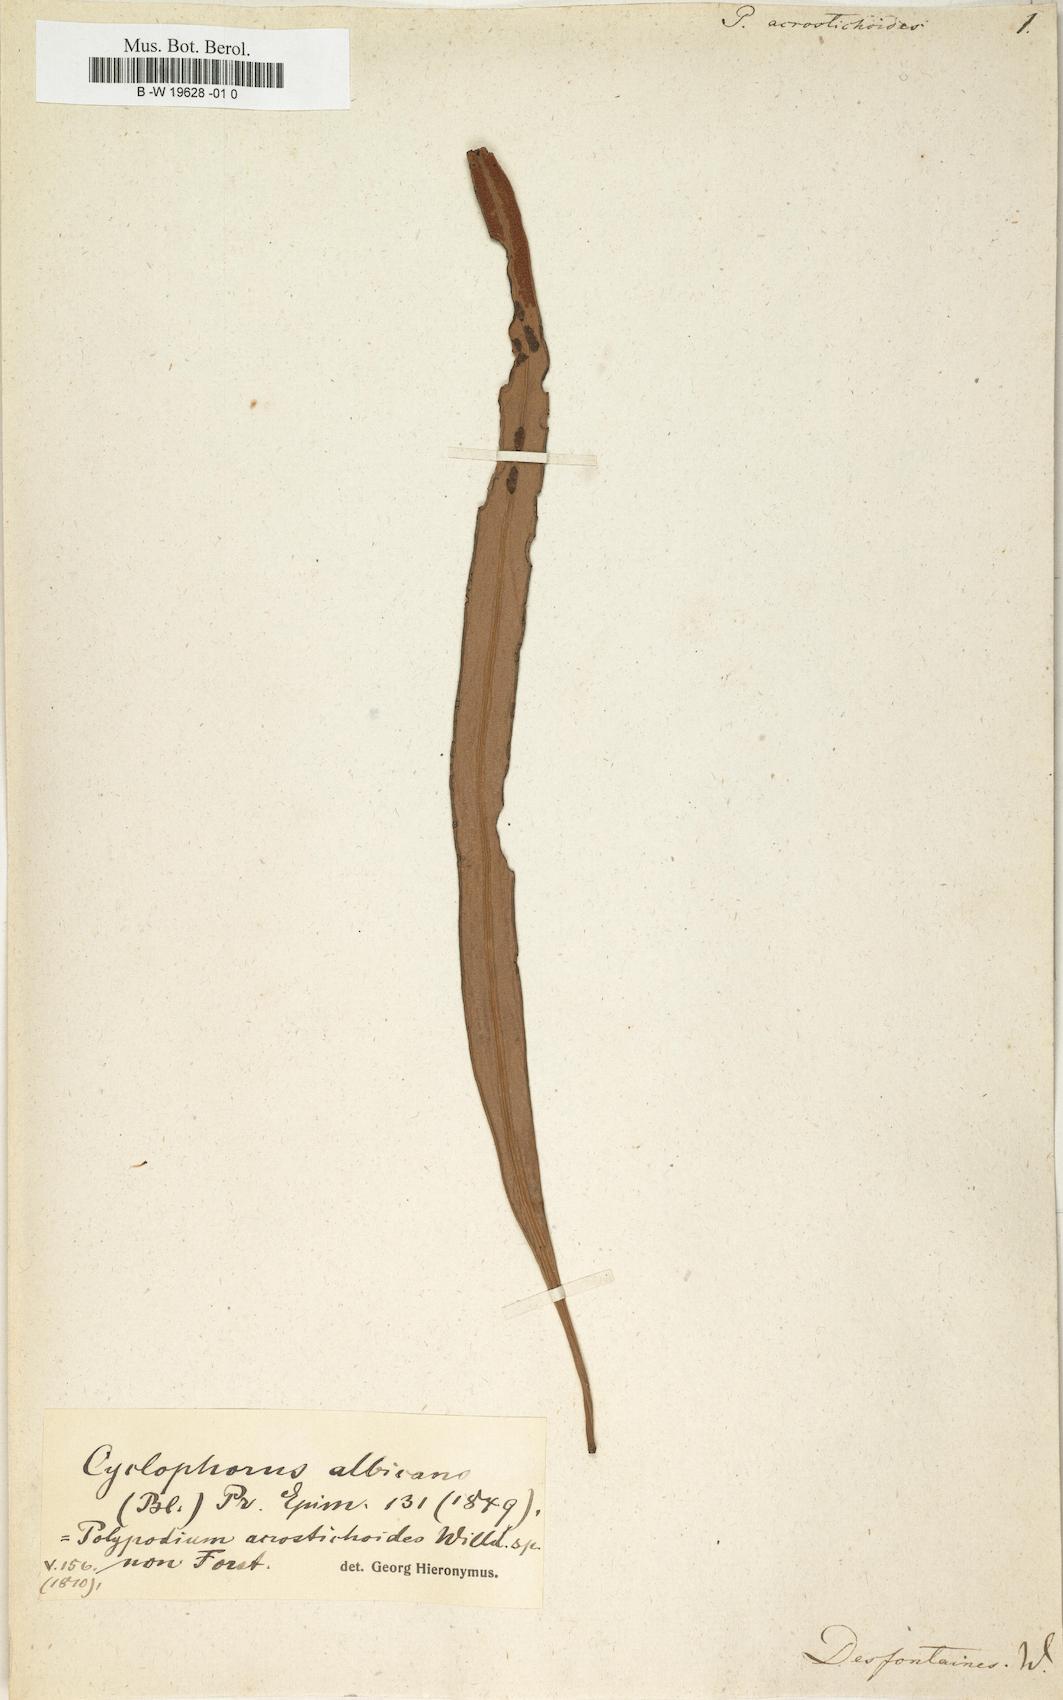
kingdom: Plantae
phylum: Tracheophyta
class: Polypodiopsida
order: Polypodiales
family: Polypodiaceae
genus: Pyrrosia
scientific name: Pyrrosia
